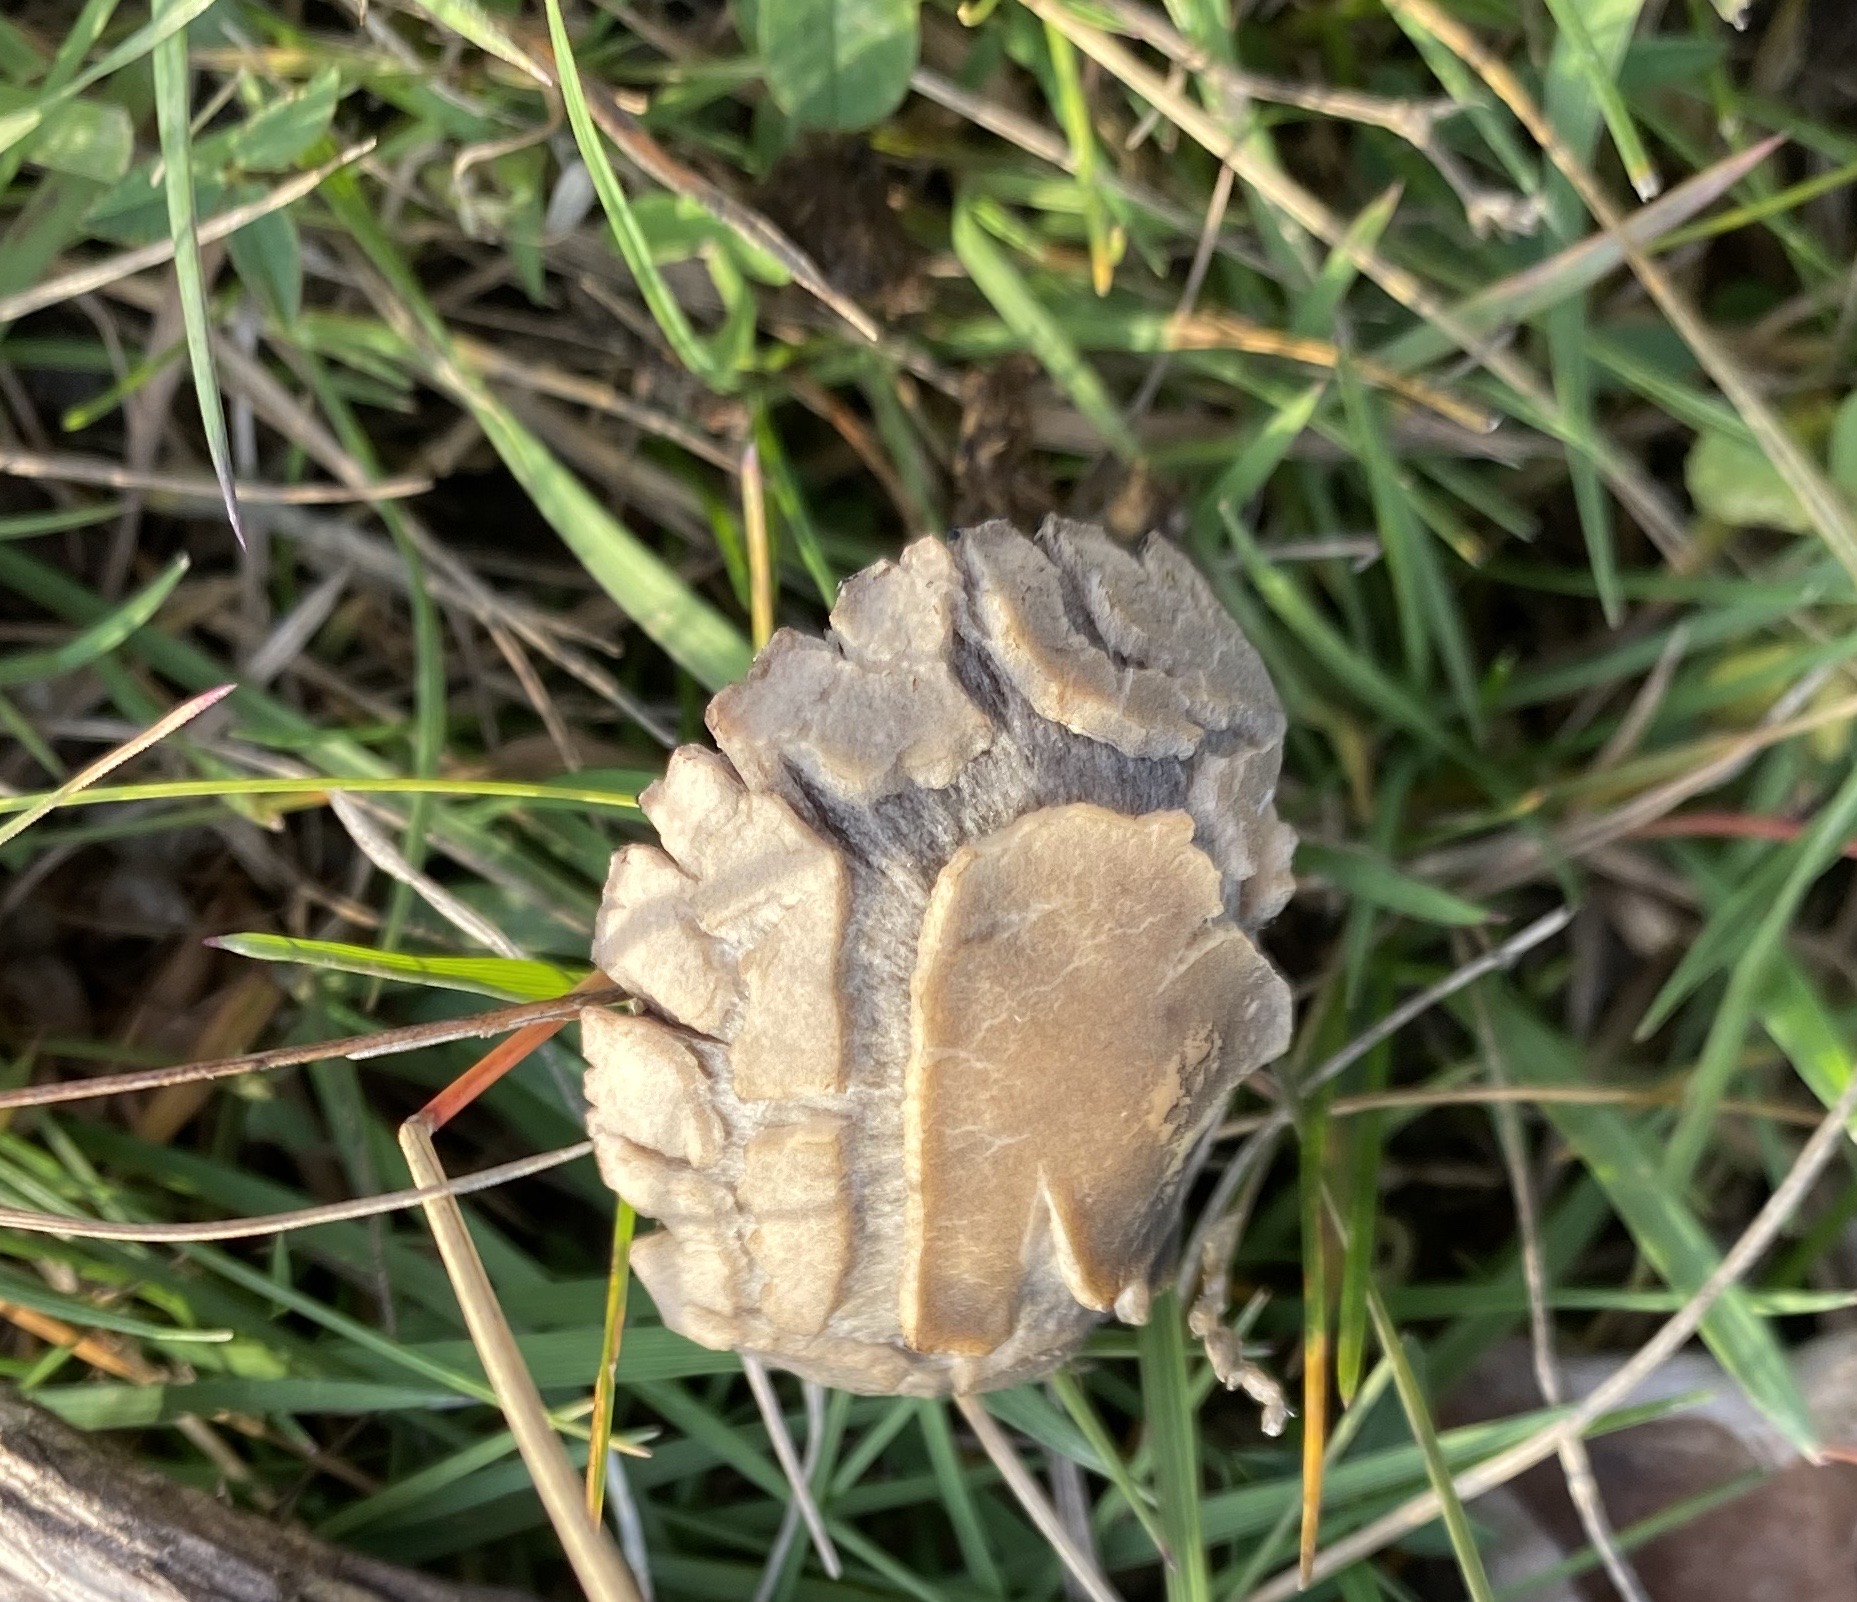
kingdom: Fungi
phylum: Basidiomycota
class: Agaricomycetes
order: Agaricales
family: Bolbitiaceae
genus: Panaeolus
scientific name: Panaeolus
